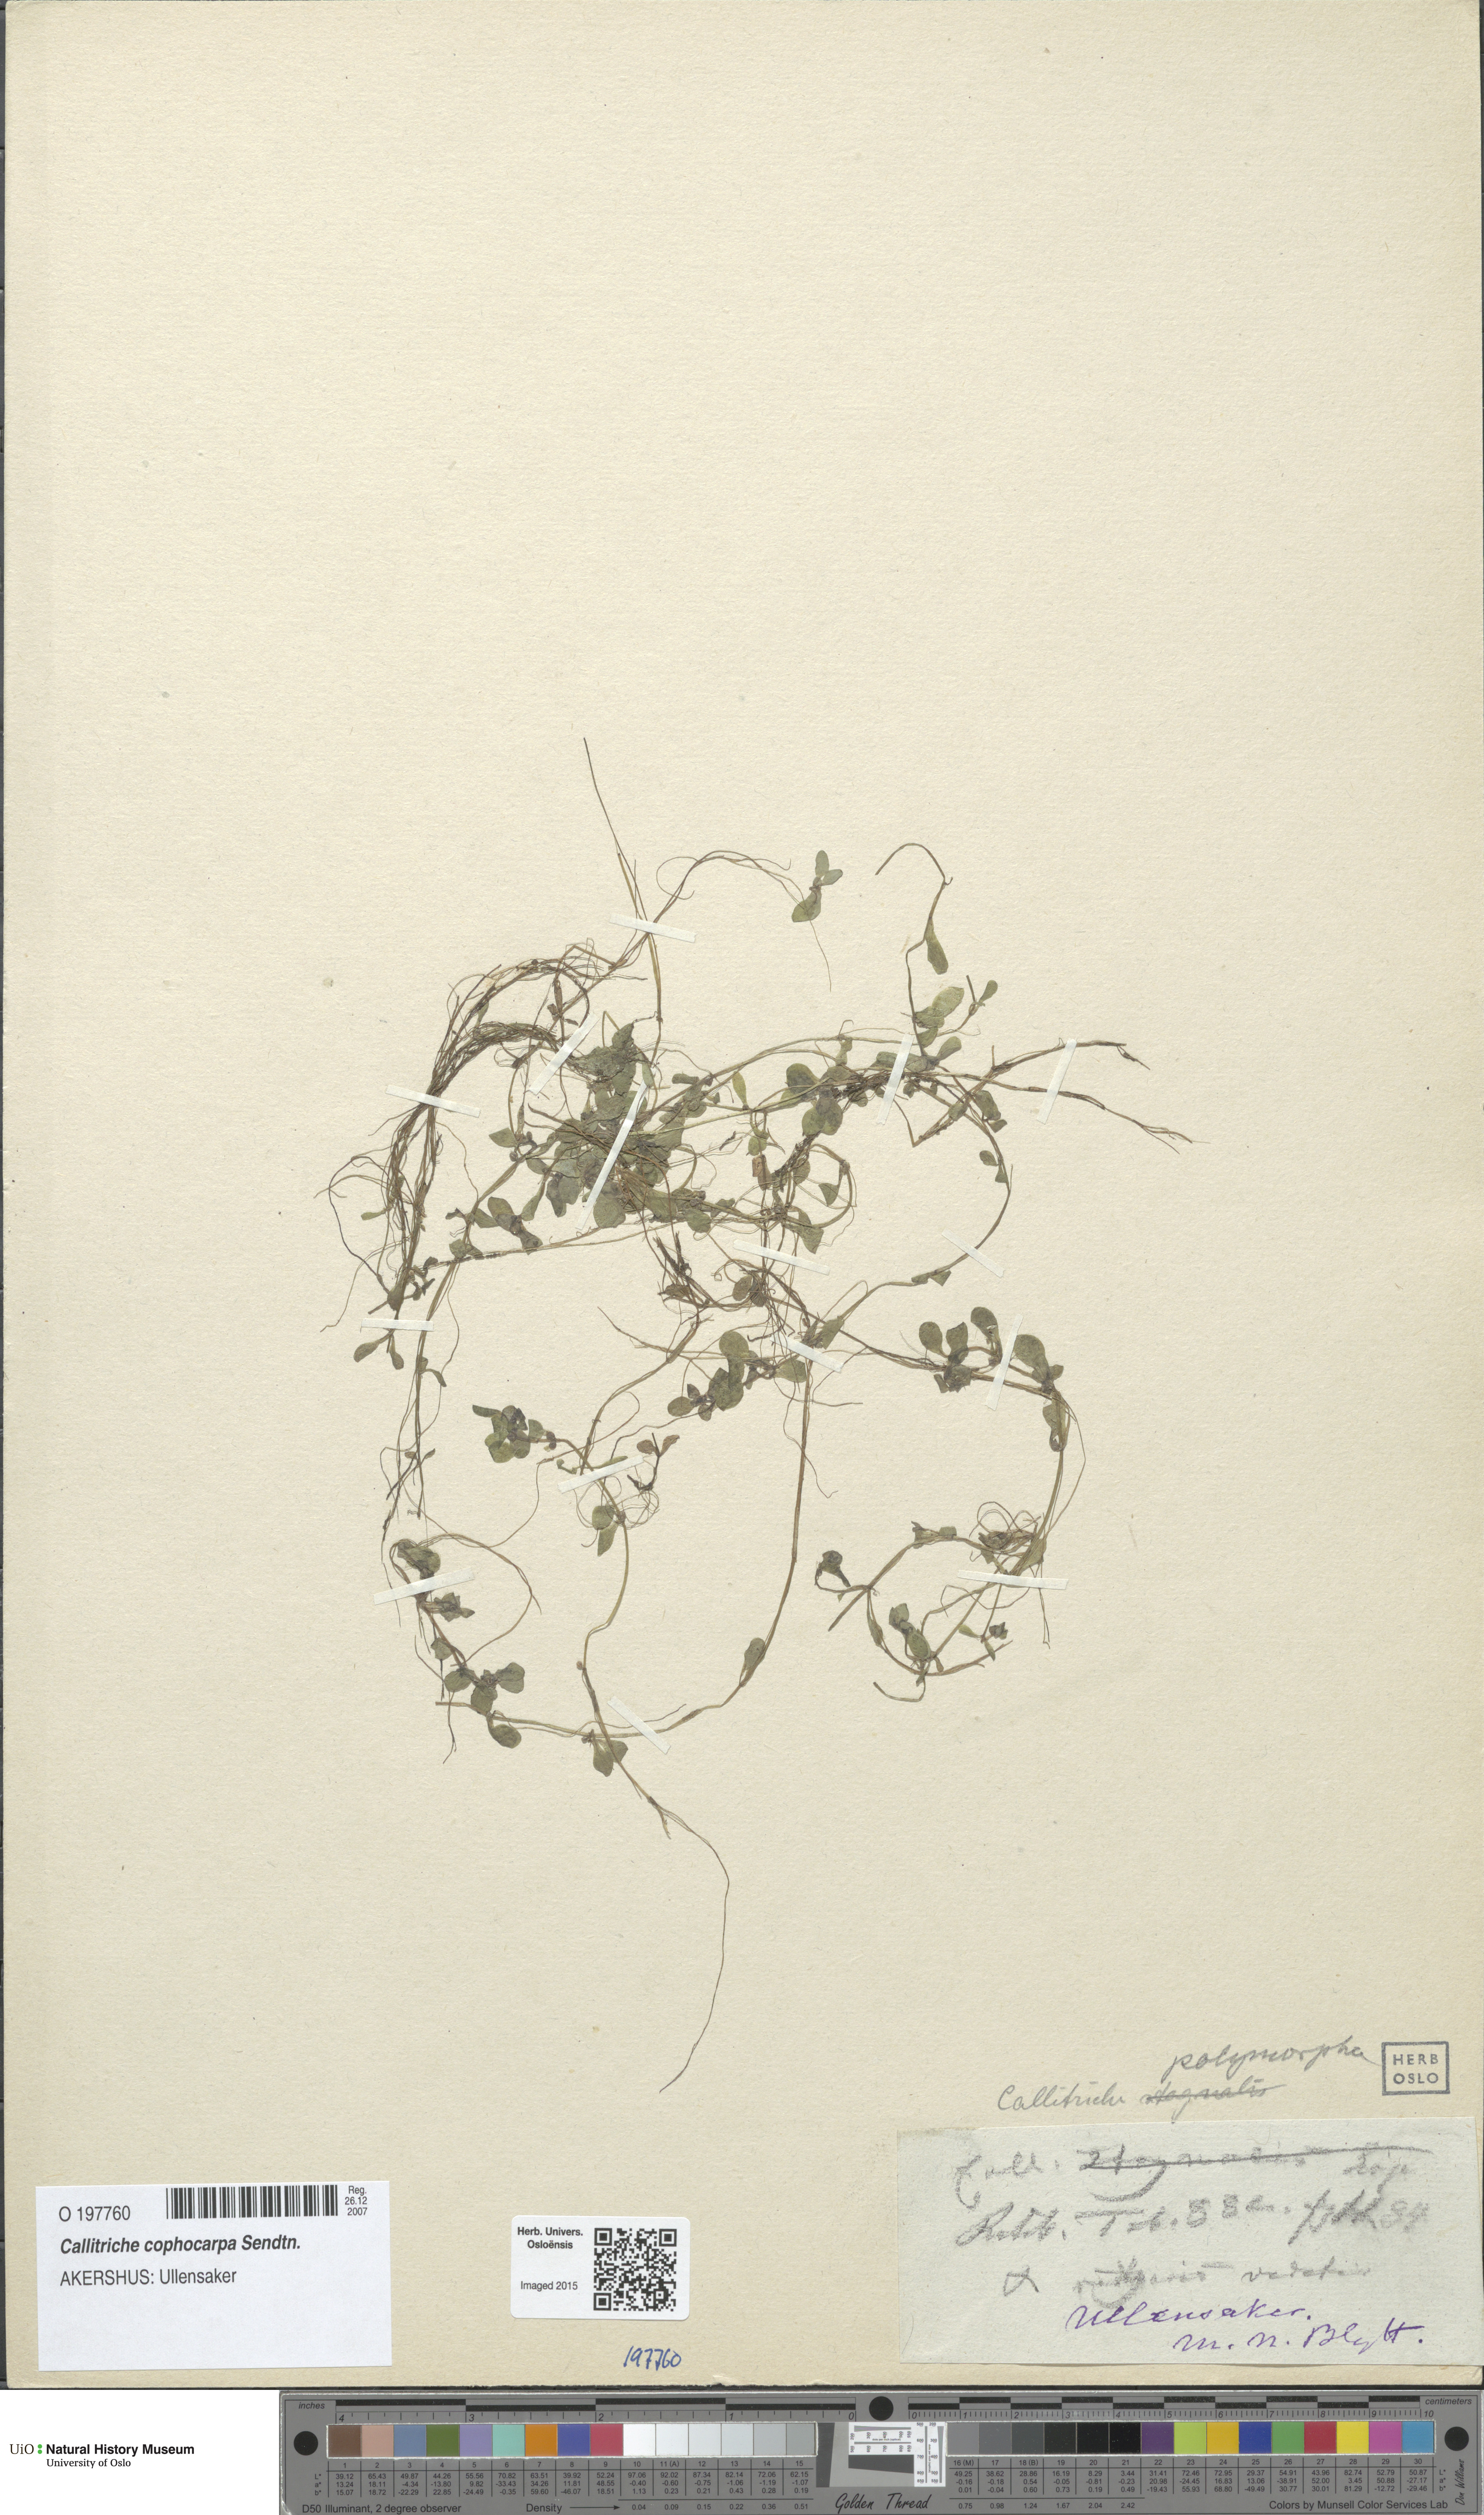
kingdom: Plantae
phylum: Tracheophyta
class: Magnoliopsida
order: Lamiales
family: Plantaginaceae
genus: Callitriche
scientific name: Callitriche cophocarpa
